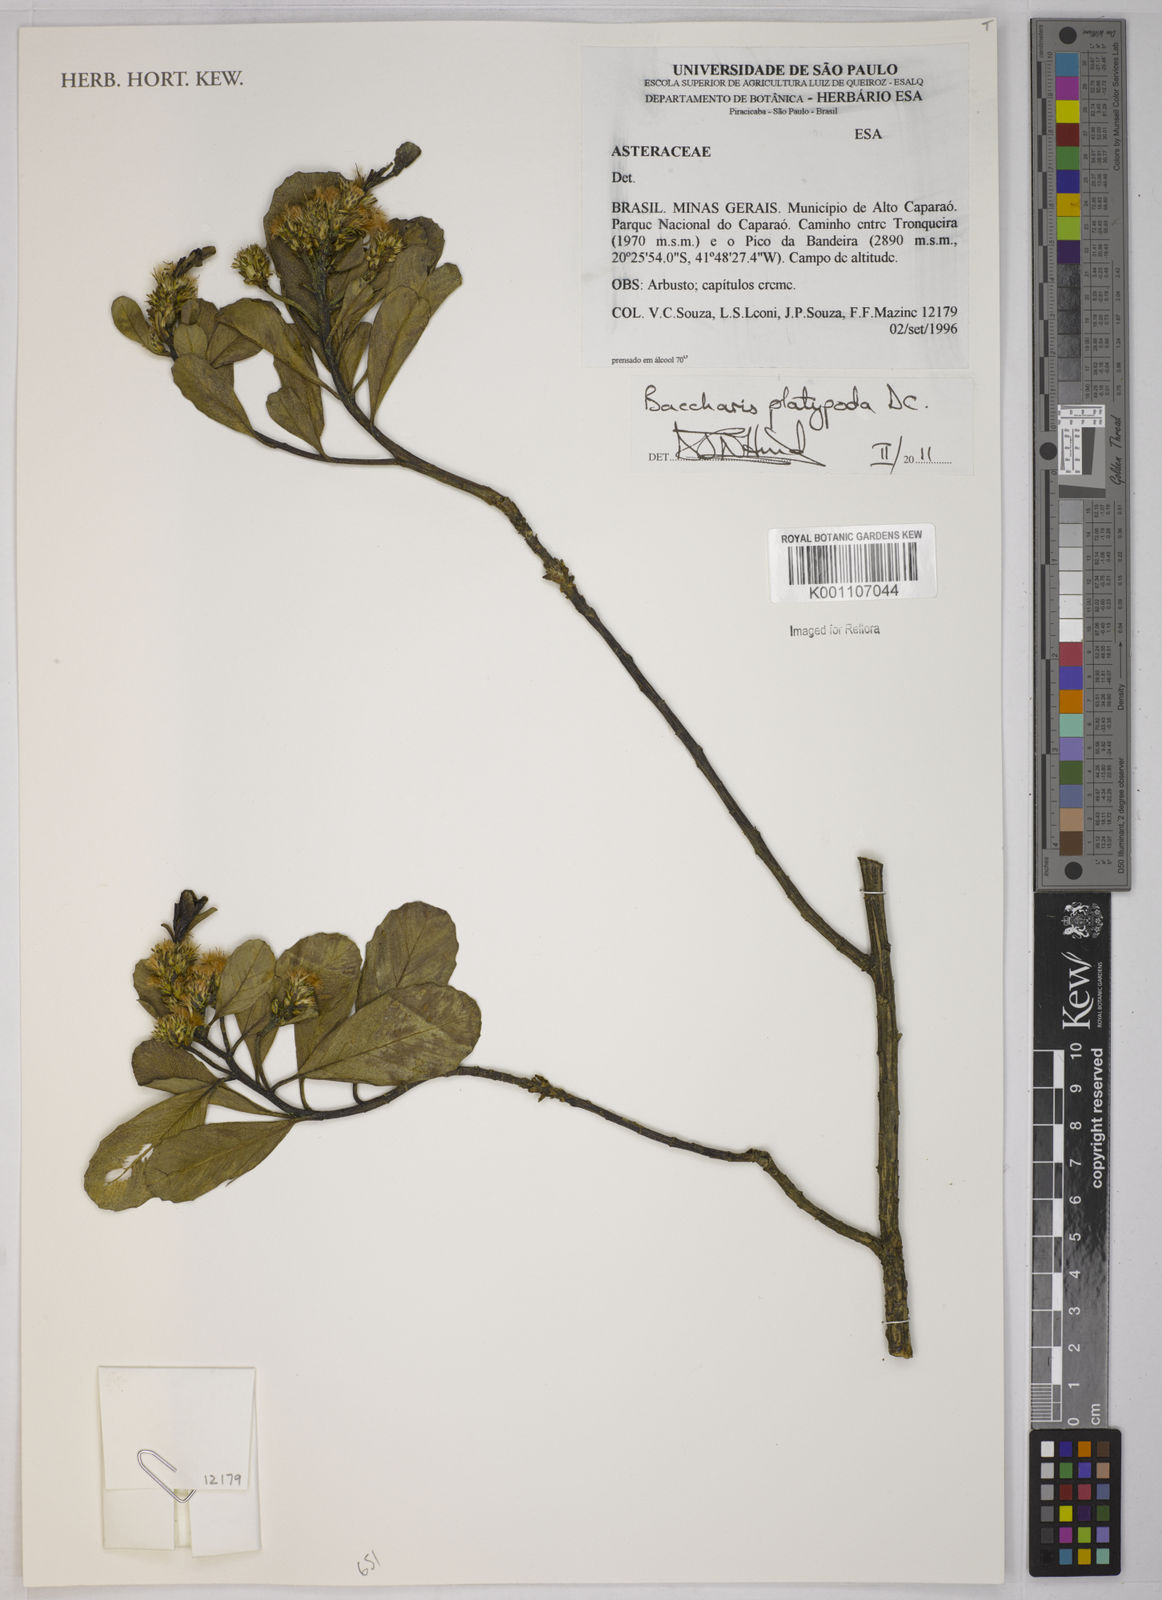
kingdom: Plantae
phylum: Tracheophyta
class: Magnoliopsida
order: Asterales
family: Asteraceae
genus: Baccharis
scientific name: Baccharis platypoda
